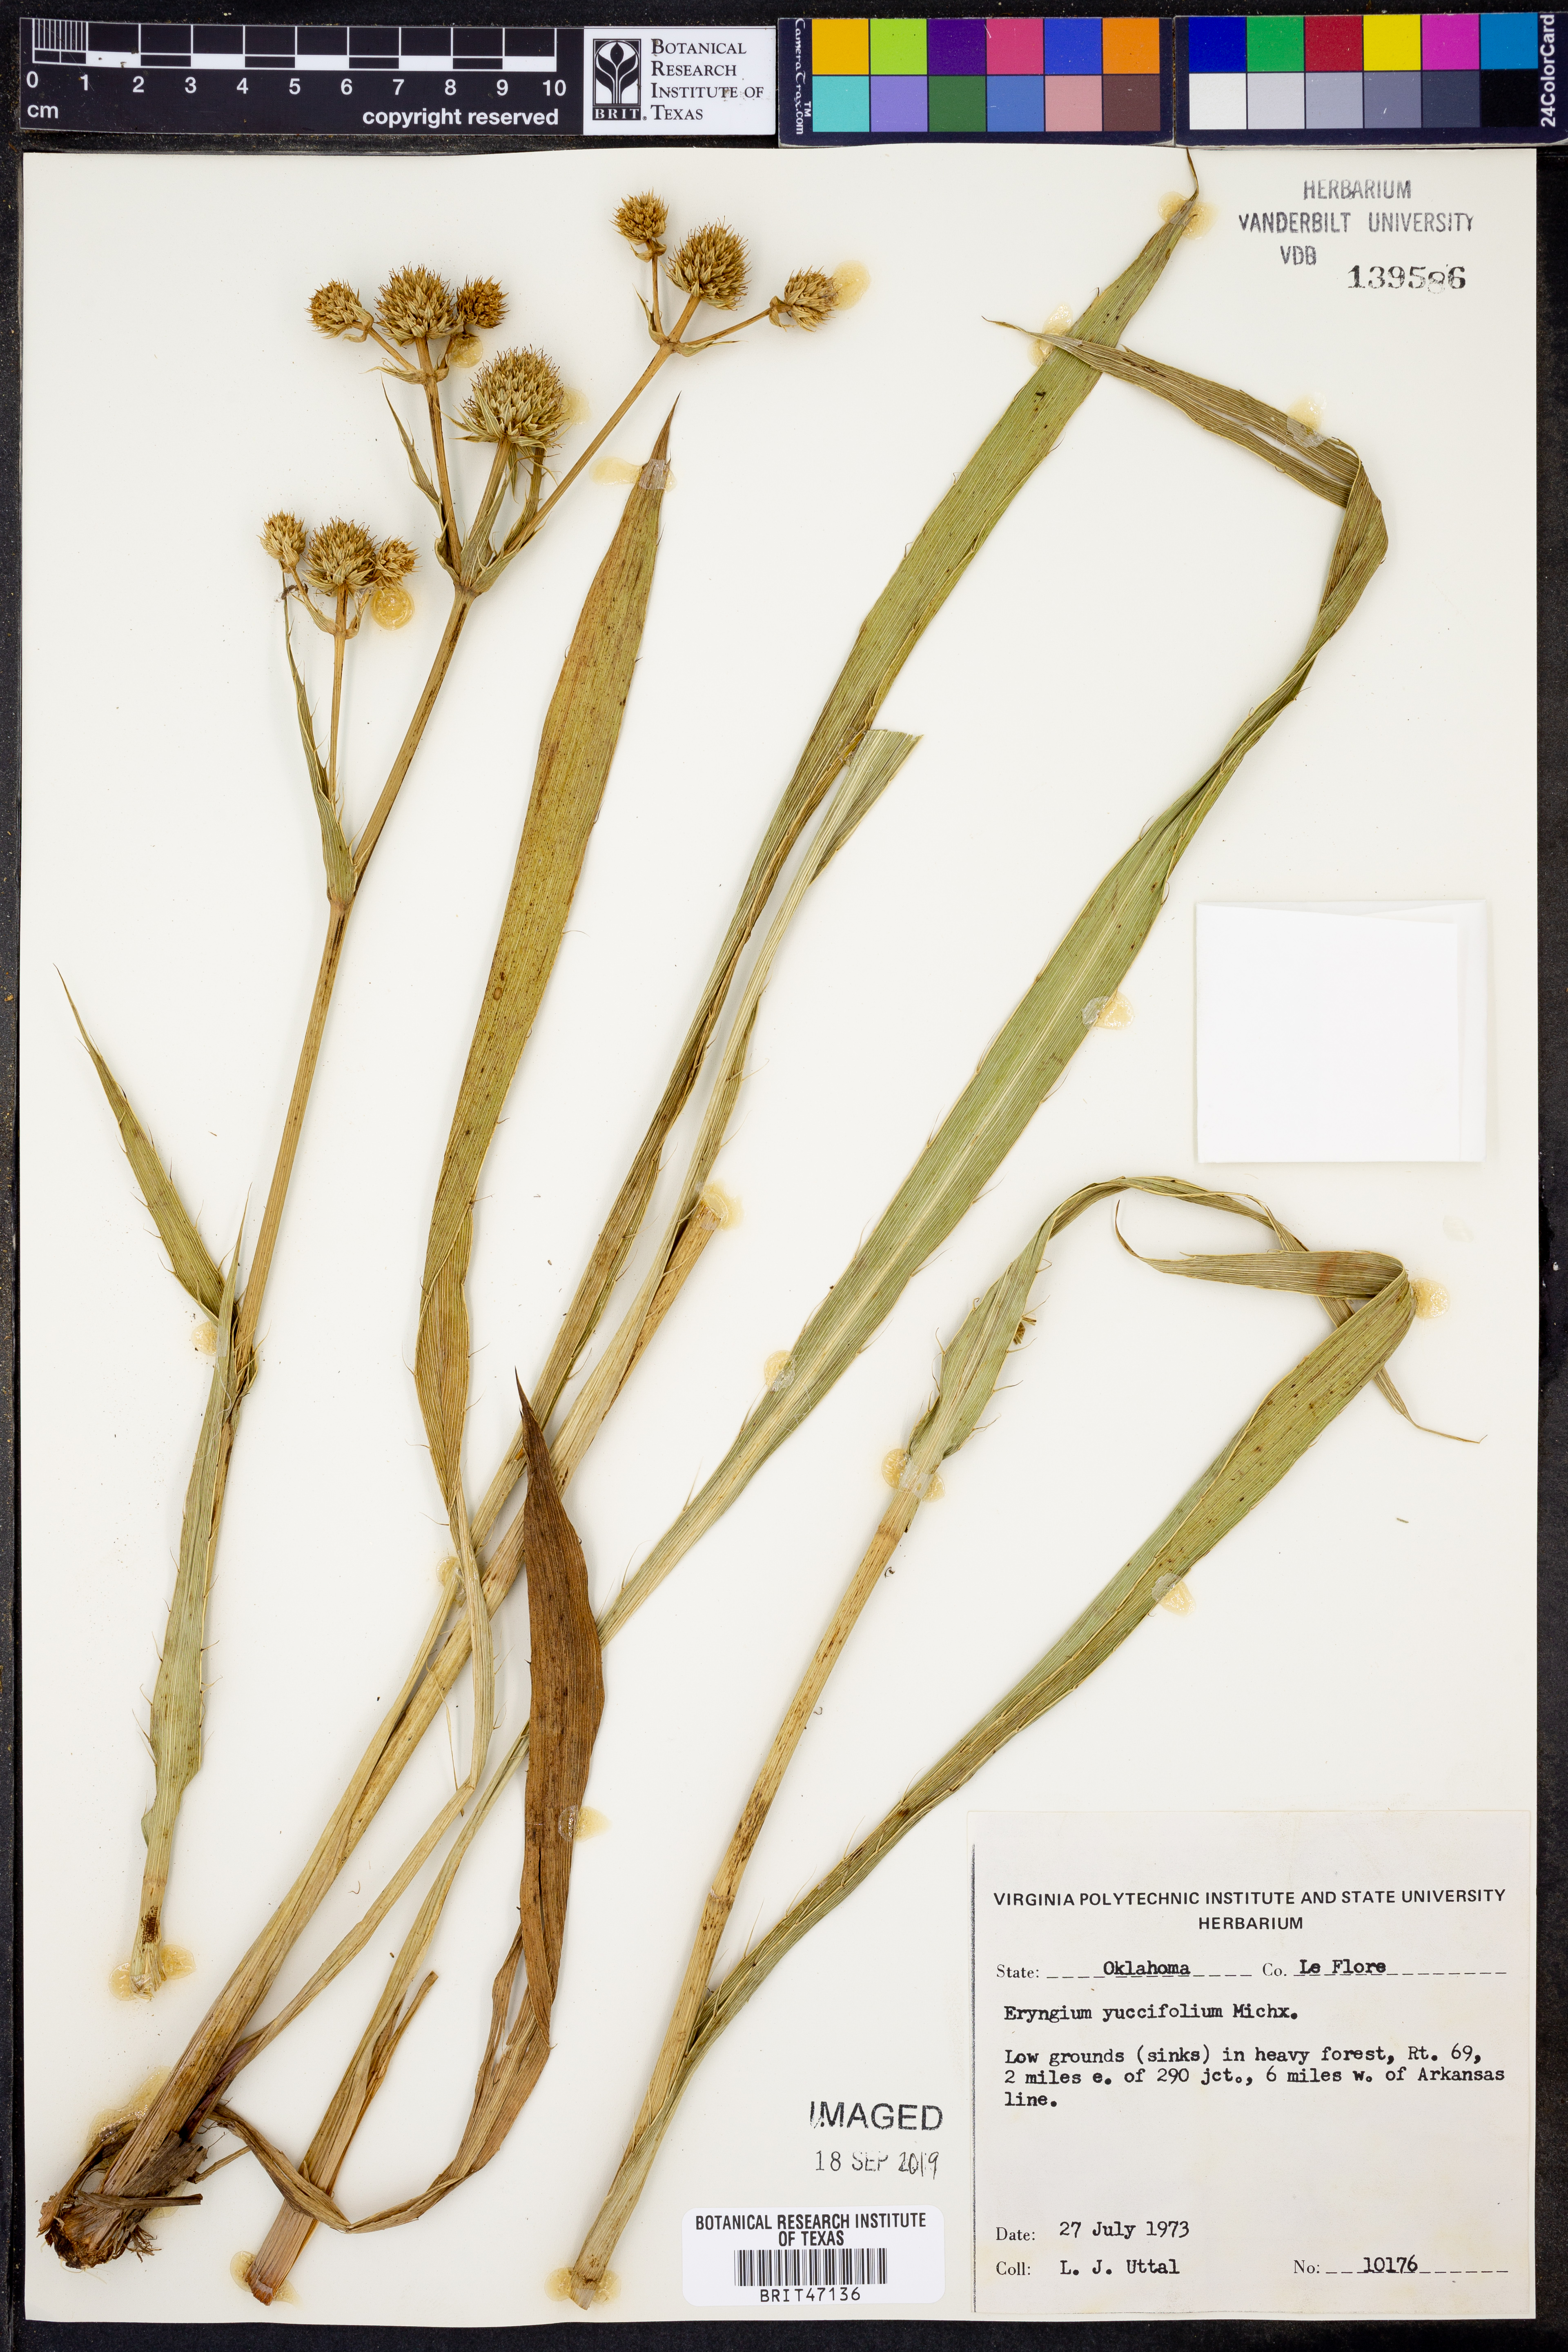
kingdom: Plantae
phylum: Tracheophyta
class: Magnoliopsida
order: Apiales
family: Apiaceae
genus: Eryngium
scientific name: Eryngium yuccifolium
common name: Button eryngo
